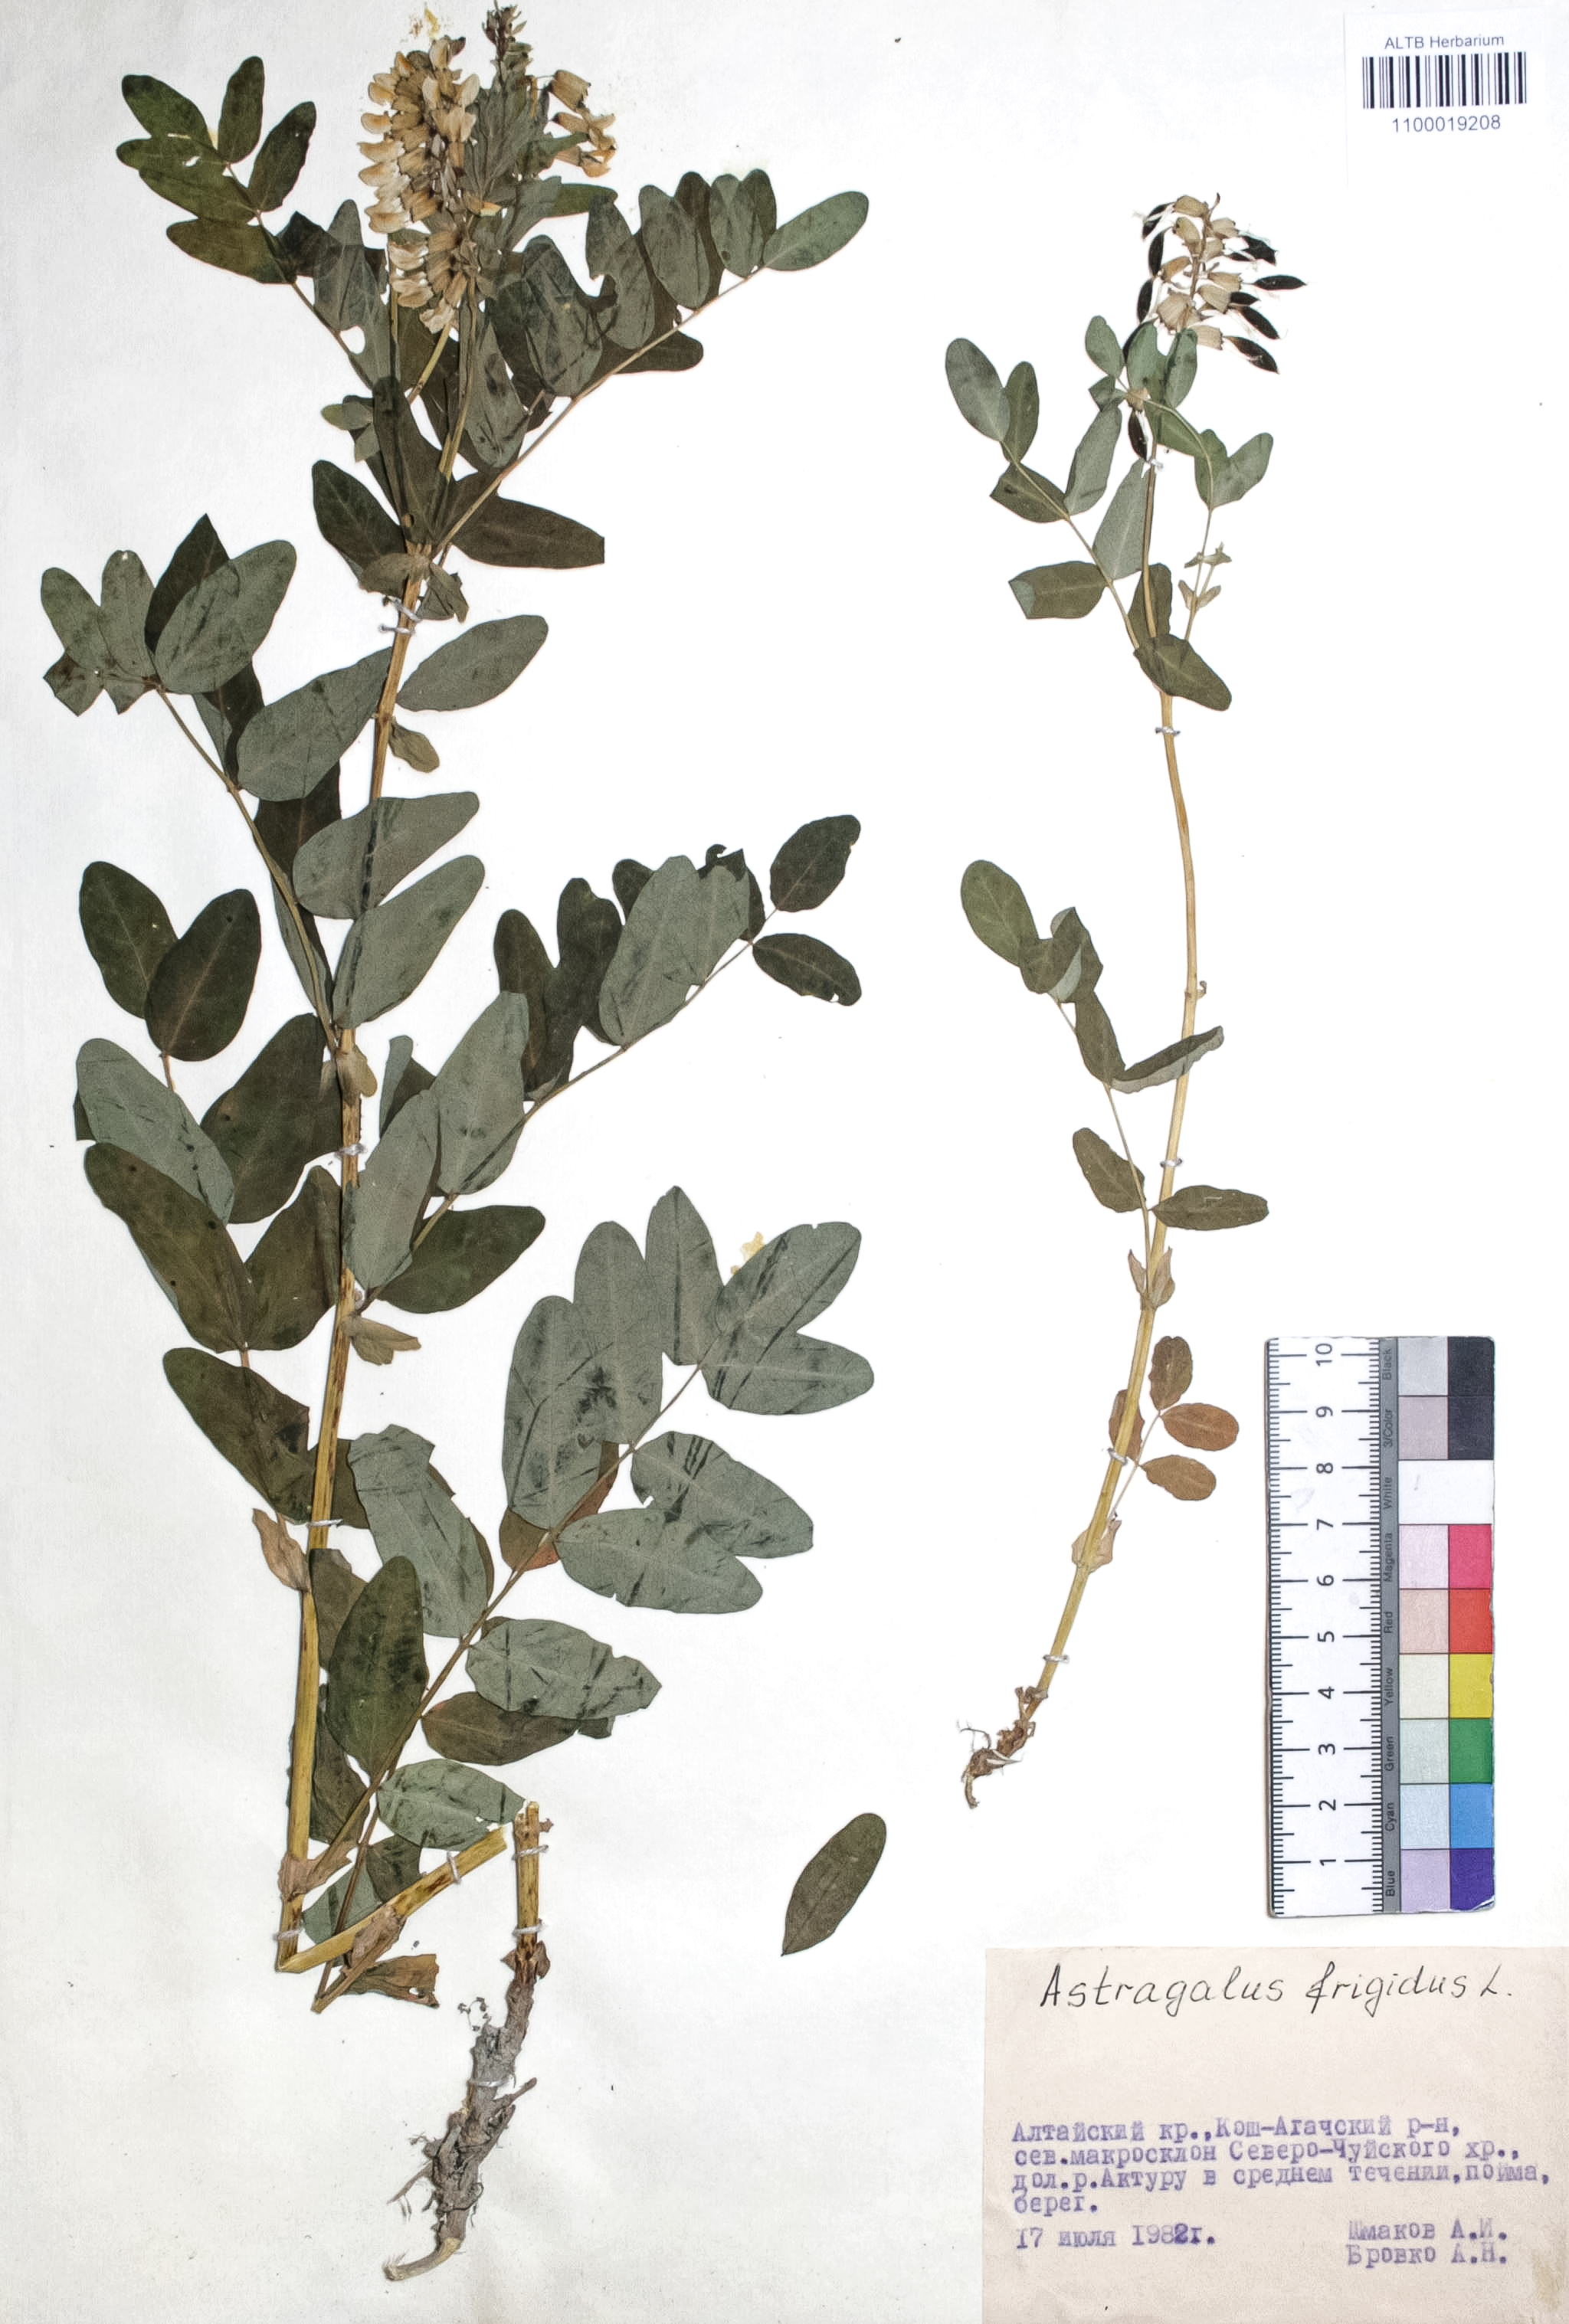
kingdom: Plantae
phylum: Tracheophyta
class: Magnoliopsida
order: Fabales
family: Fabaceae
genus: Astragalus
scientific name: Astragalus melanocephalus
